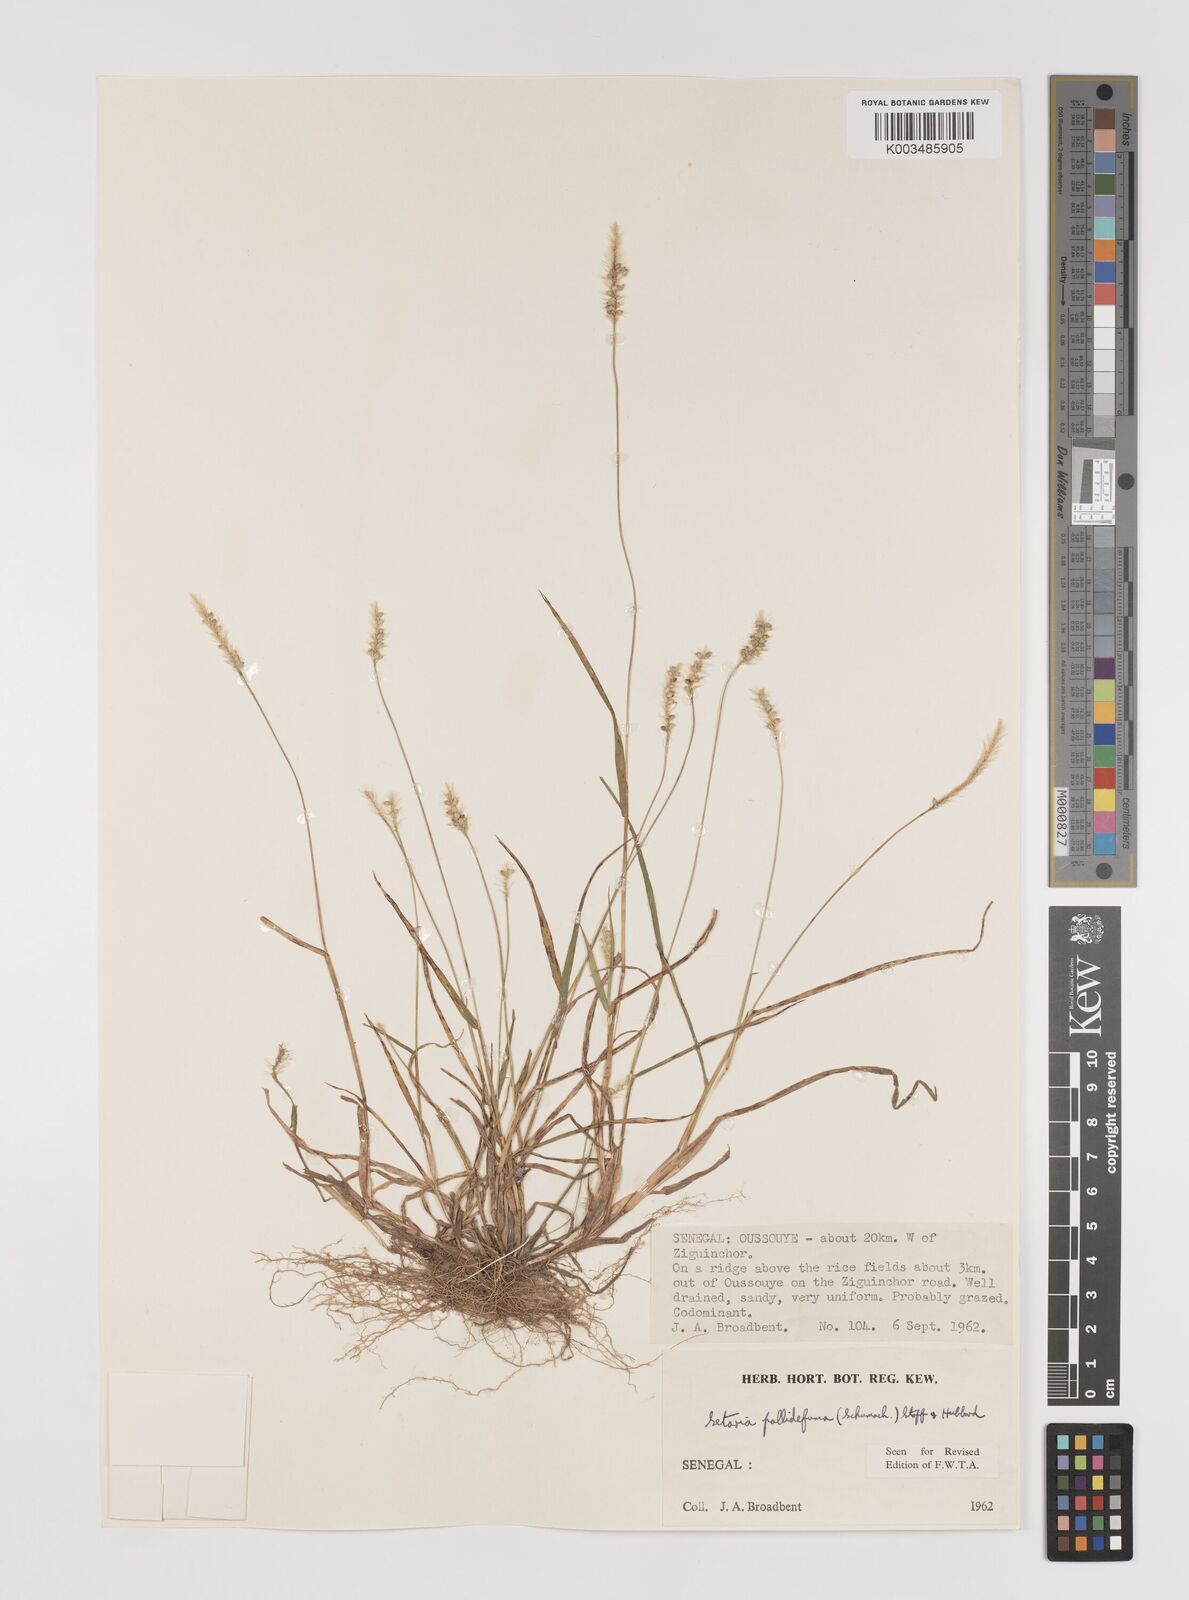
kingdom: Plantae
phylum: Tracheophyta
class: Liliopsida
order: Poales
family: Poaceae
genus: Setaria
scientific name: Setaria pumila
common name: Yellow bristle-grass
